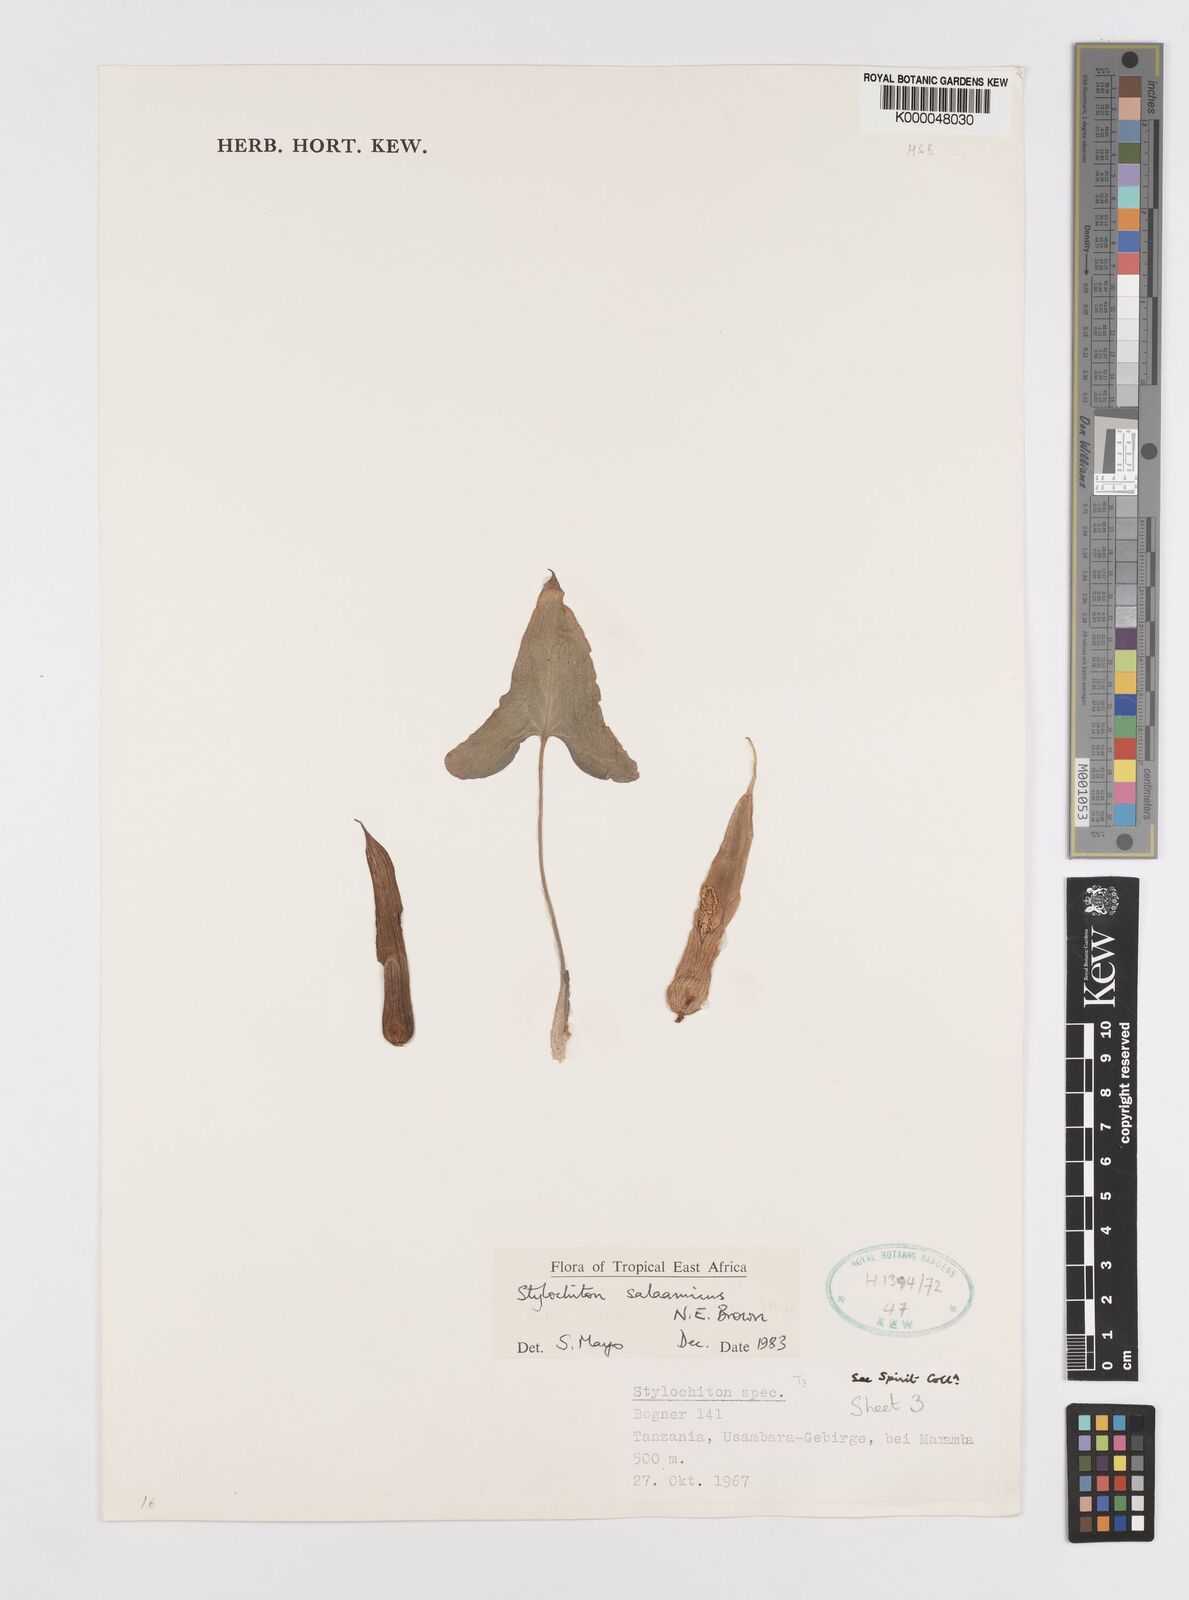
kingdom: Plantae
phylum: Tracheophyta
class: Liliopsida
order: Alismatales
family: Araceae
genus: Stylochaeton
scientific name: Stylochaeton salaamicum
